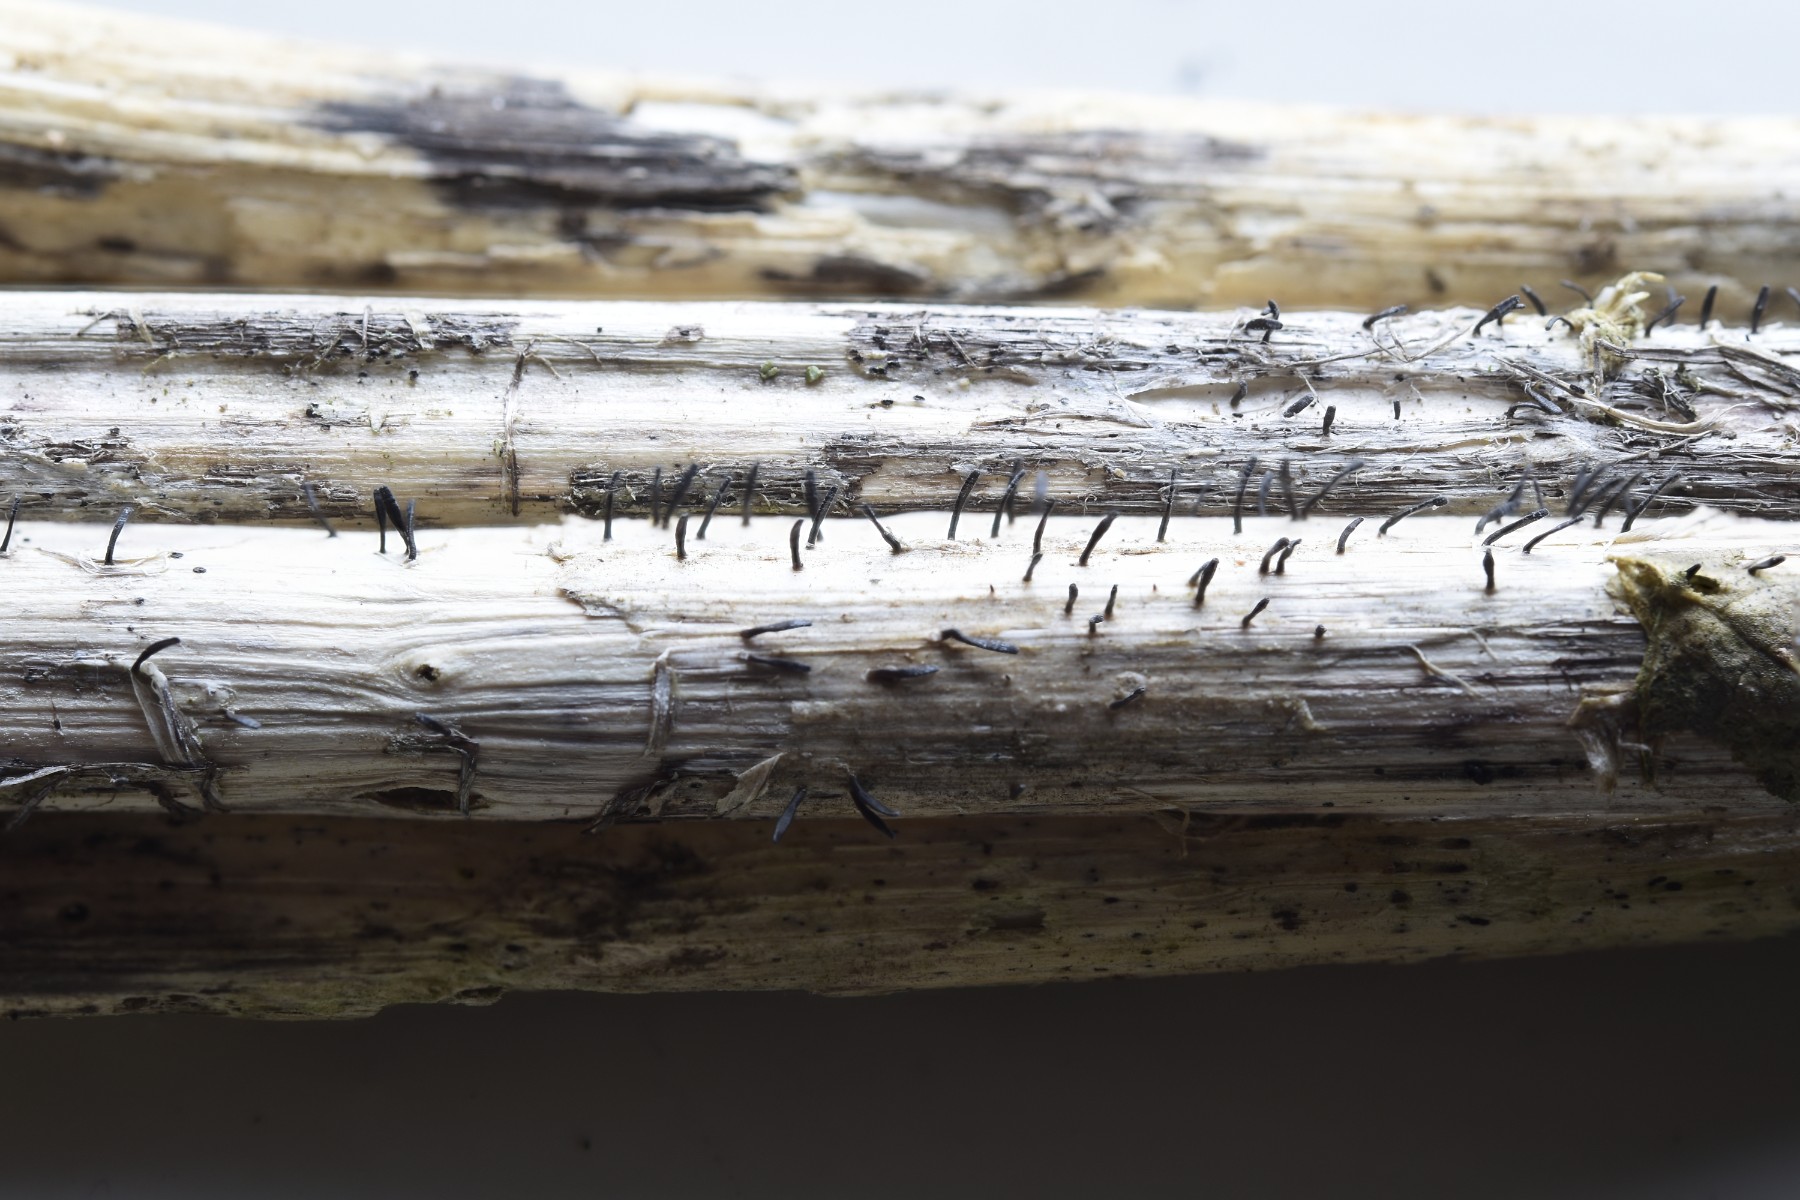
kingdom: Fungi
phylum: Ascomycota
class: Dothideomycetes
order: Acrospermales
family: Acrospermaceae
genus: Acrospermum
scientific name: Acrospermum compressum
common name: nælde-stængeltunge
